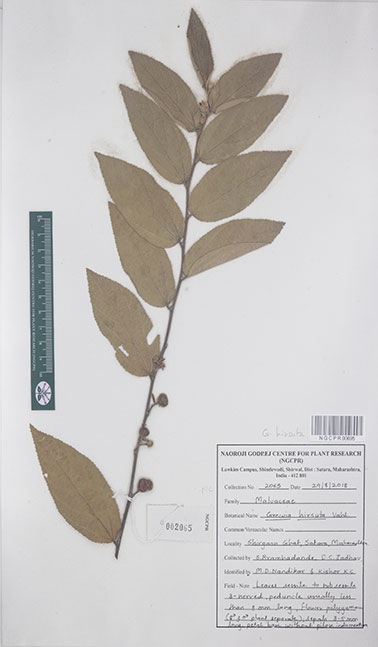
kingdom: Plantae
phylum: Tracheophyta
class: Magnoliopsida
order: Malvales
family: Malvaceae
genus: Grewia
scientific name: Grewia hirsuta
